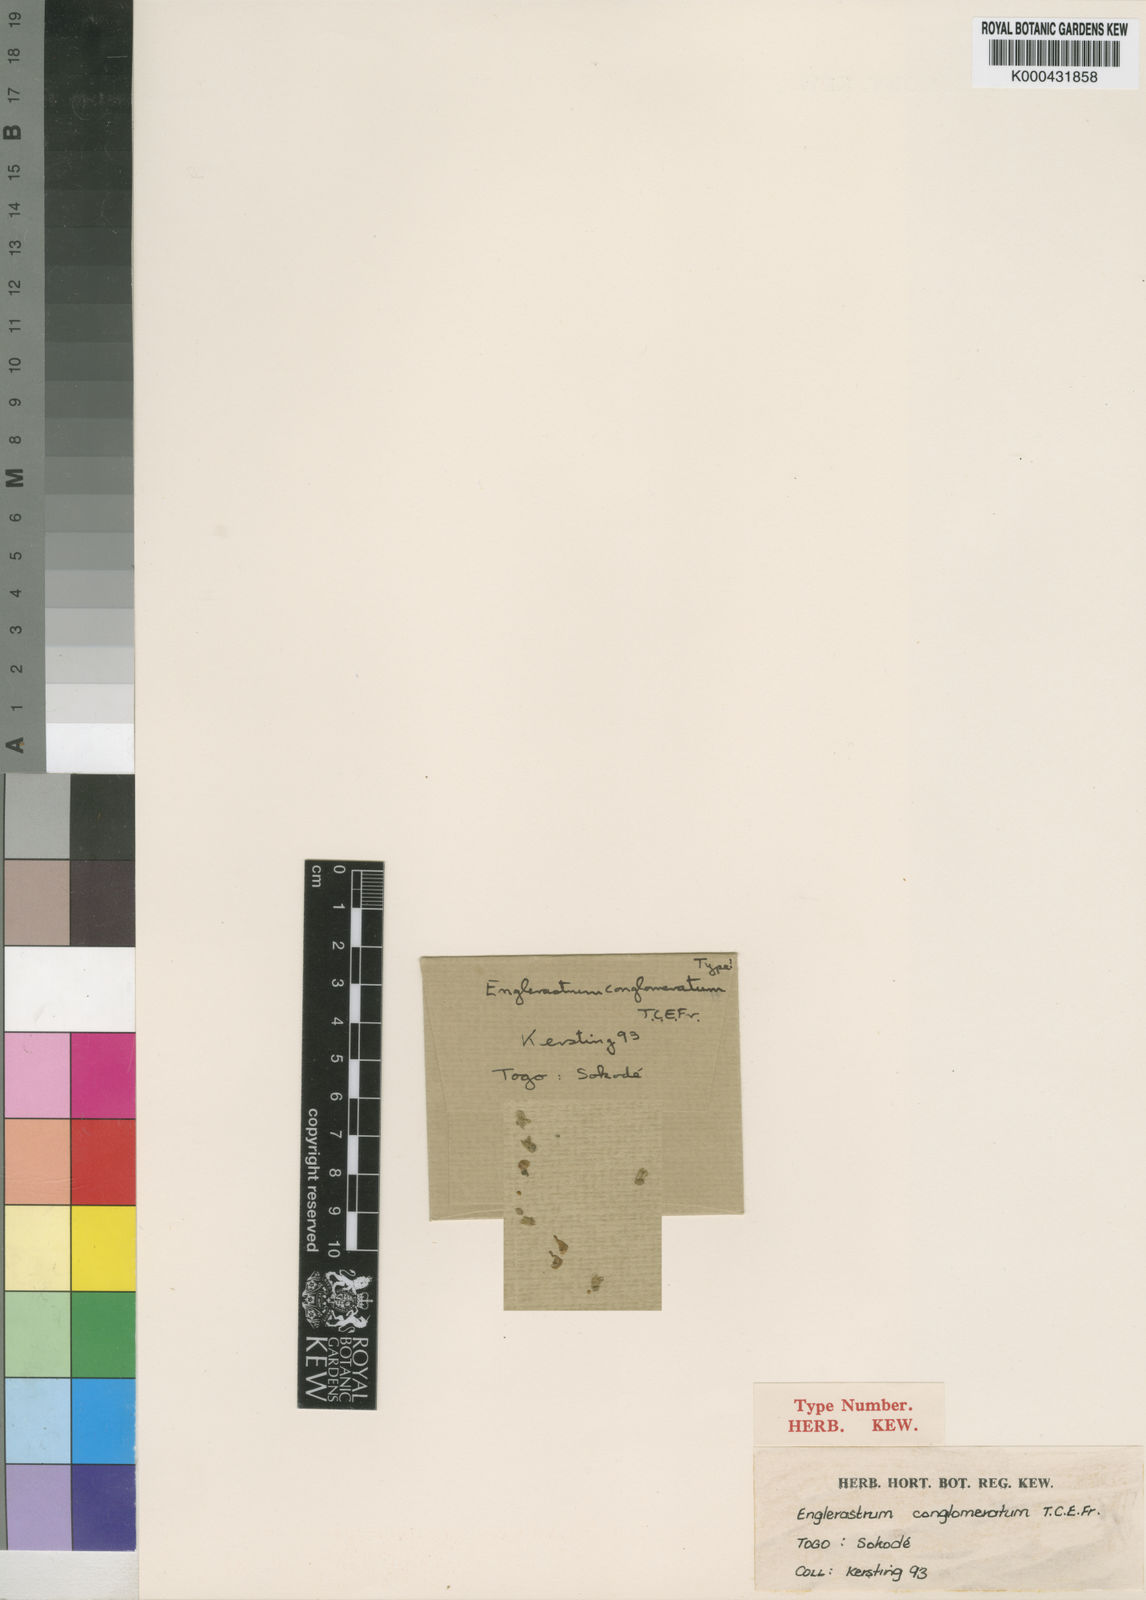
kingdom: Plantae
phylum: Tracheophyta
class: Magnoliopsida
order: Lamiales
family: Lamiaceae
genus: Coleus
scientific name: Coleus conglomeratus
